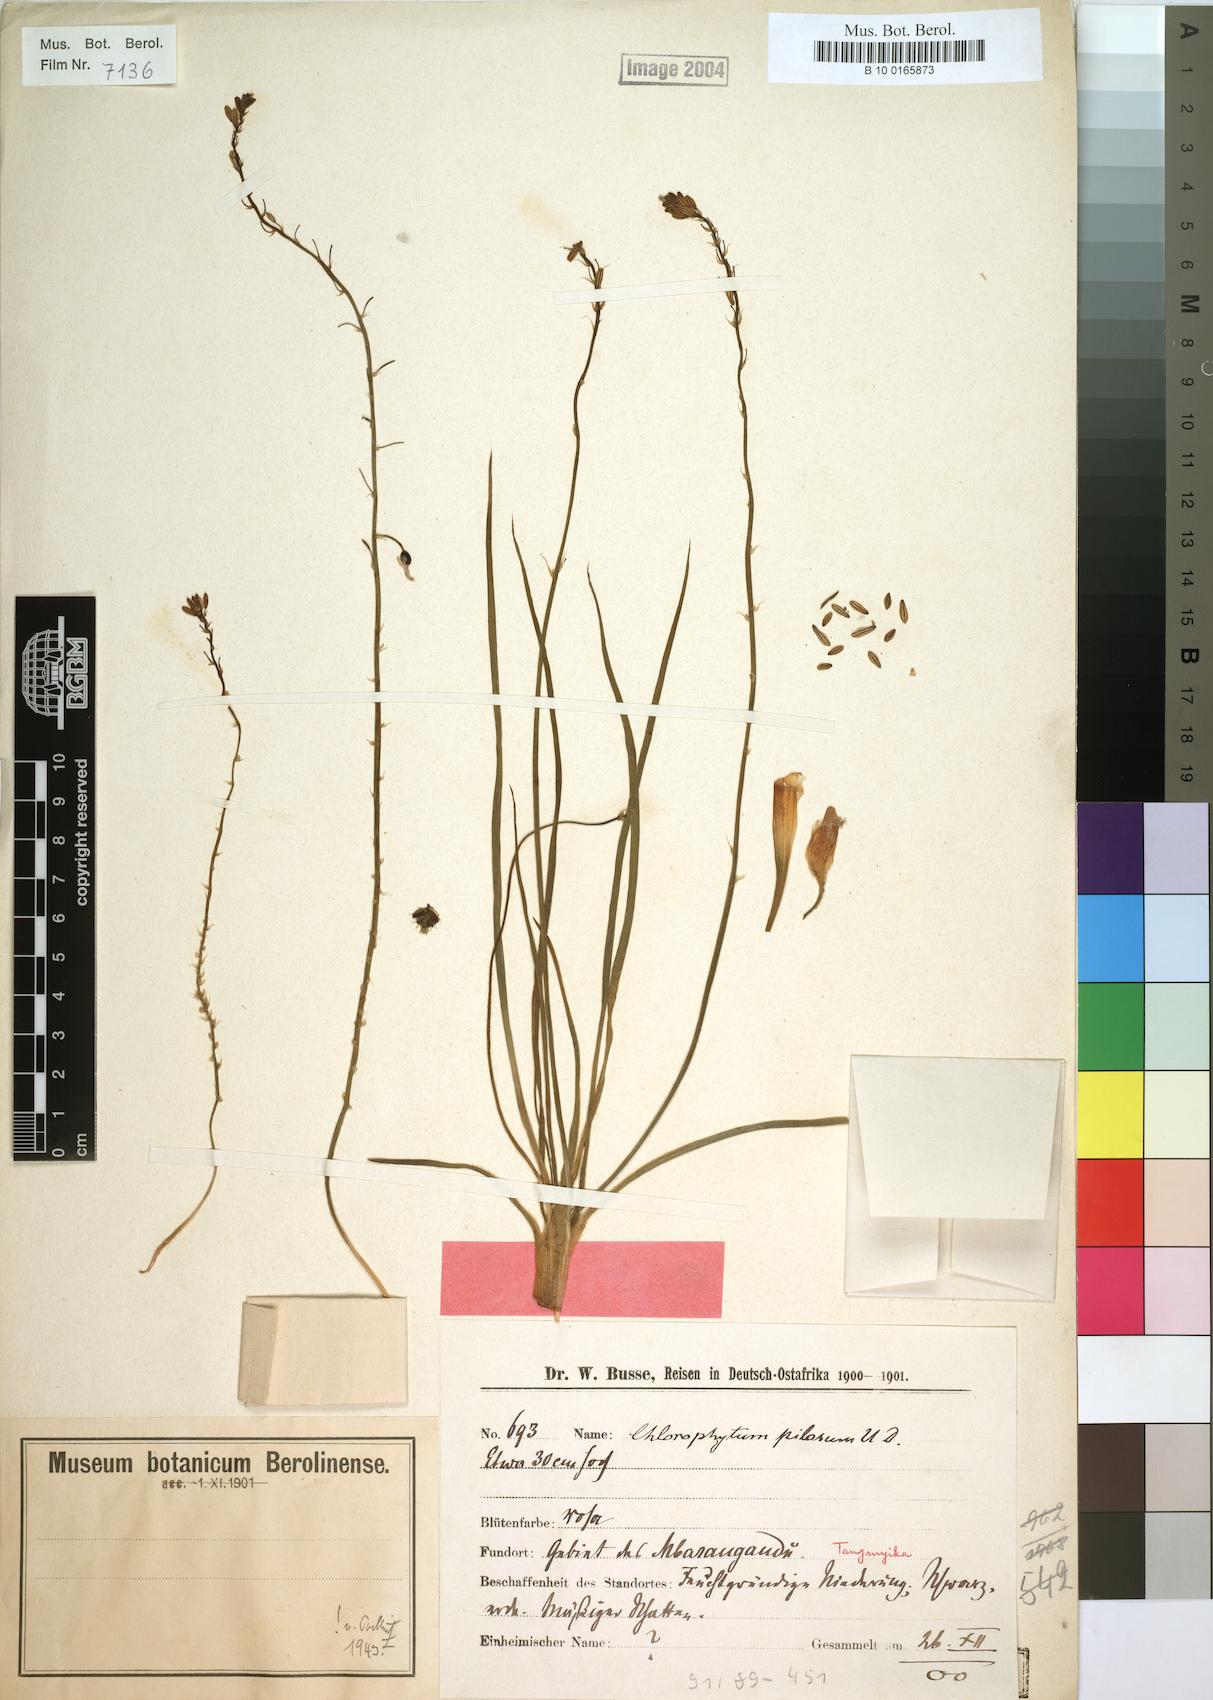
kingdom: Plantae
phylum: Tracheophyta
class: Liliopsida
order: Asparagales
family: Asphodelaceae
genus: Trachyandra
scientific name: Trachyandra saltii
